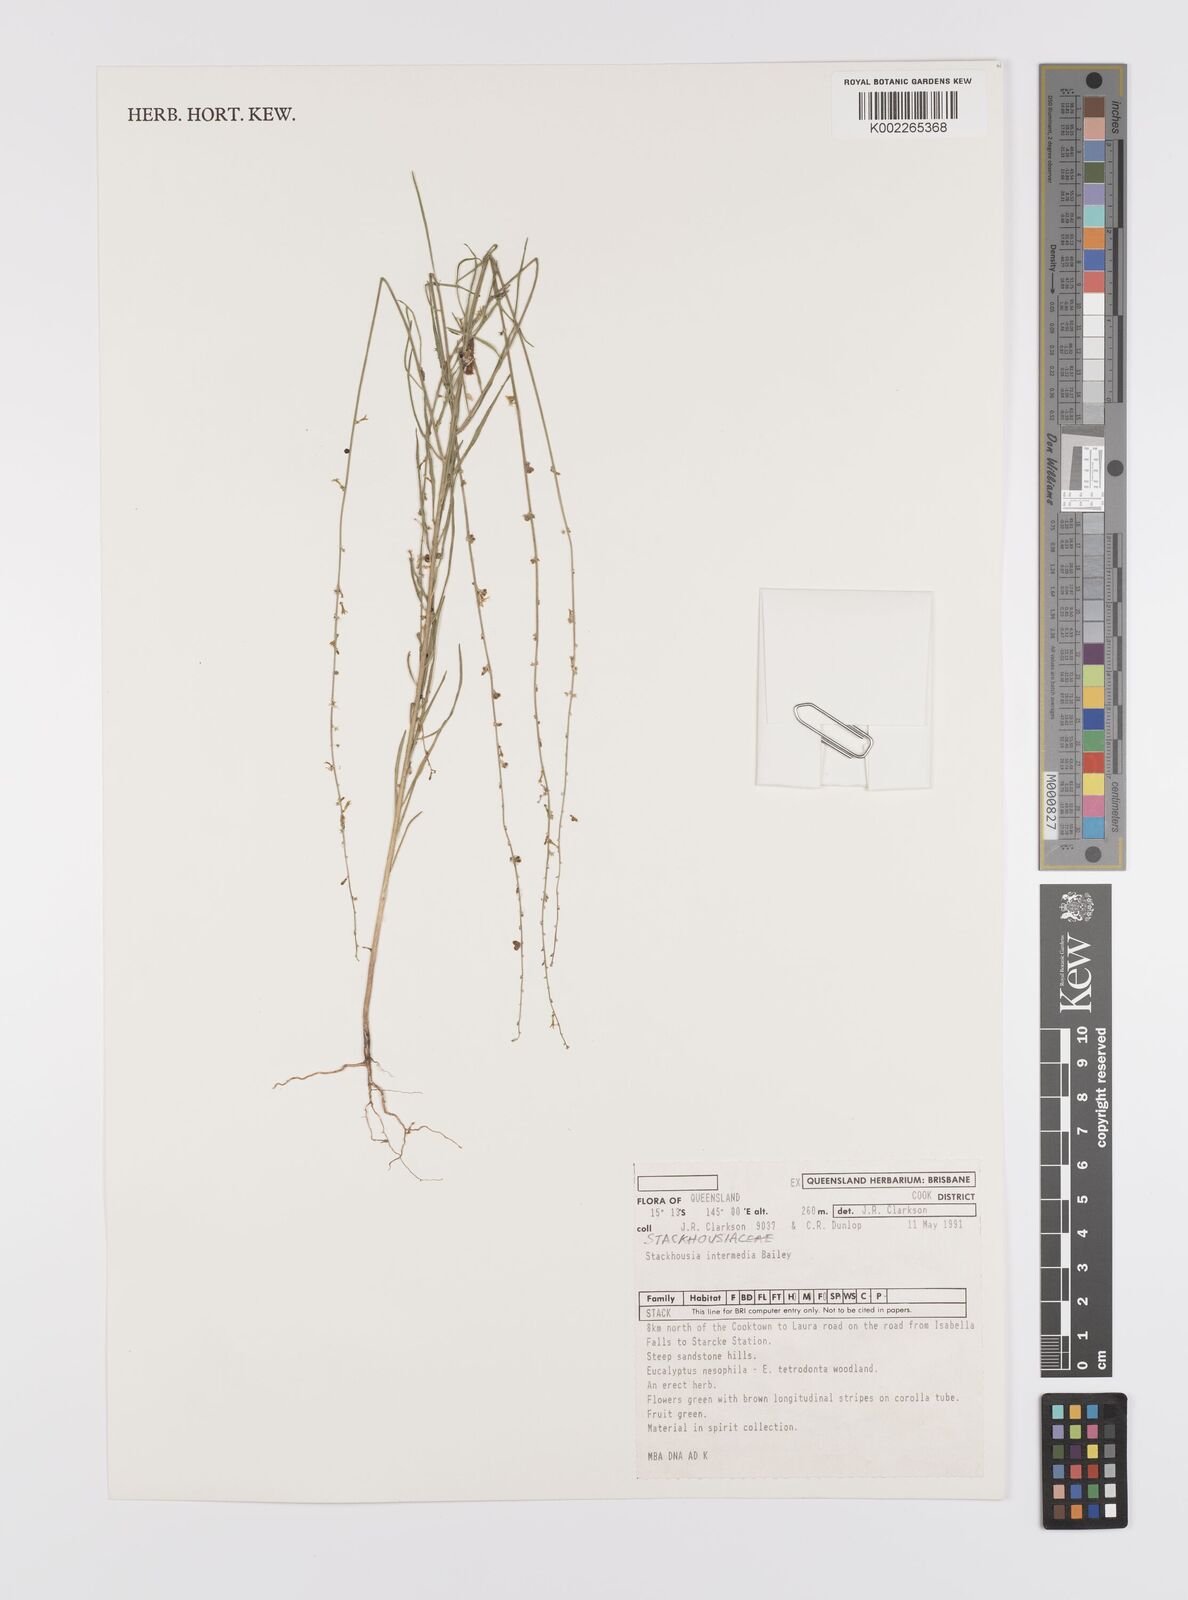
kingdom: Plantae
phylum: Tracheophyta
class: Magnoliopsida
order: Celastrales
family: Celastraceae
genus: Stackhousia
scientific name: Stackhousia intermedia
